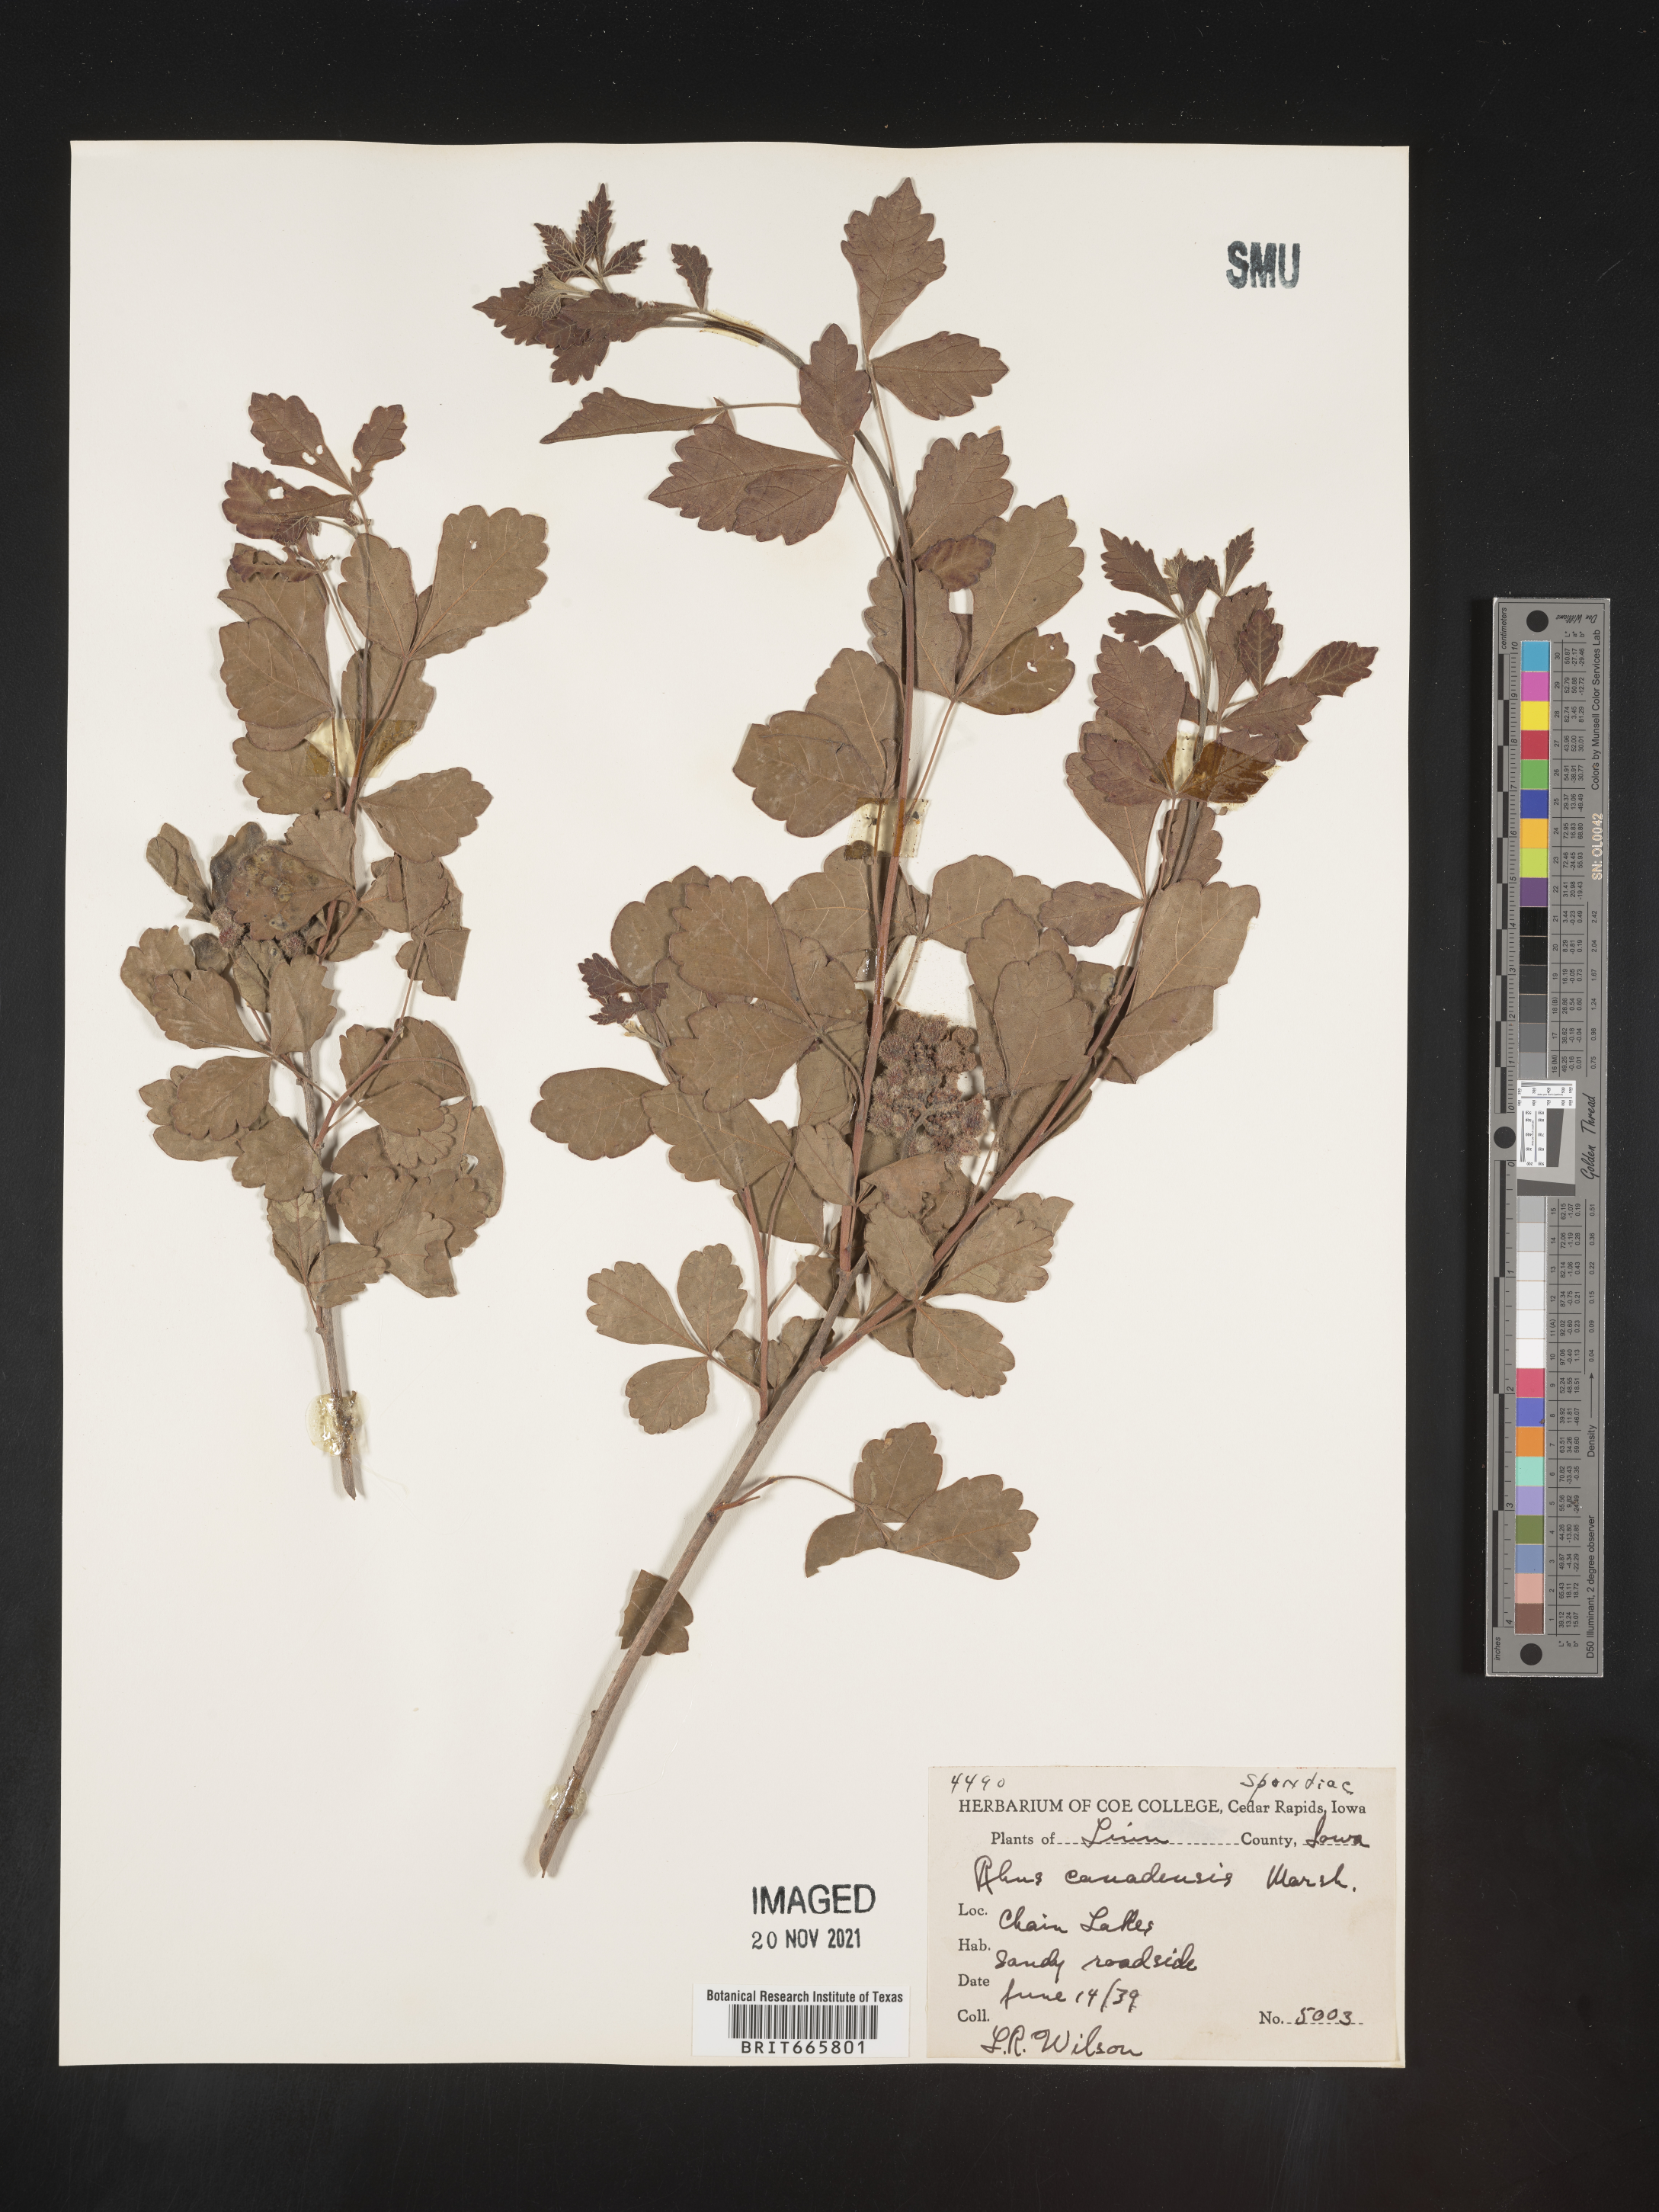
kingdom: Plantae
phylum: Tracheophyta
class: Magnoliopsida
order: Sapindales
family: Anacardiaceae
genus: Rhus
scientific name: Rhus aromatica
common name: Aromatic sumac
